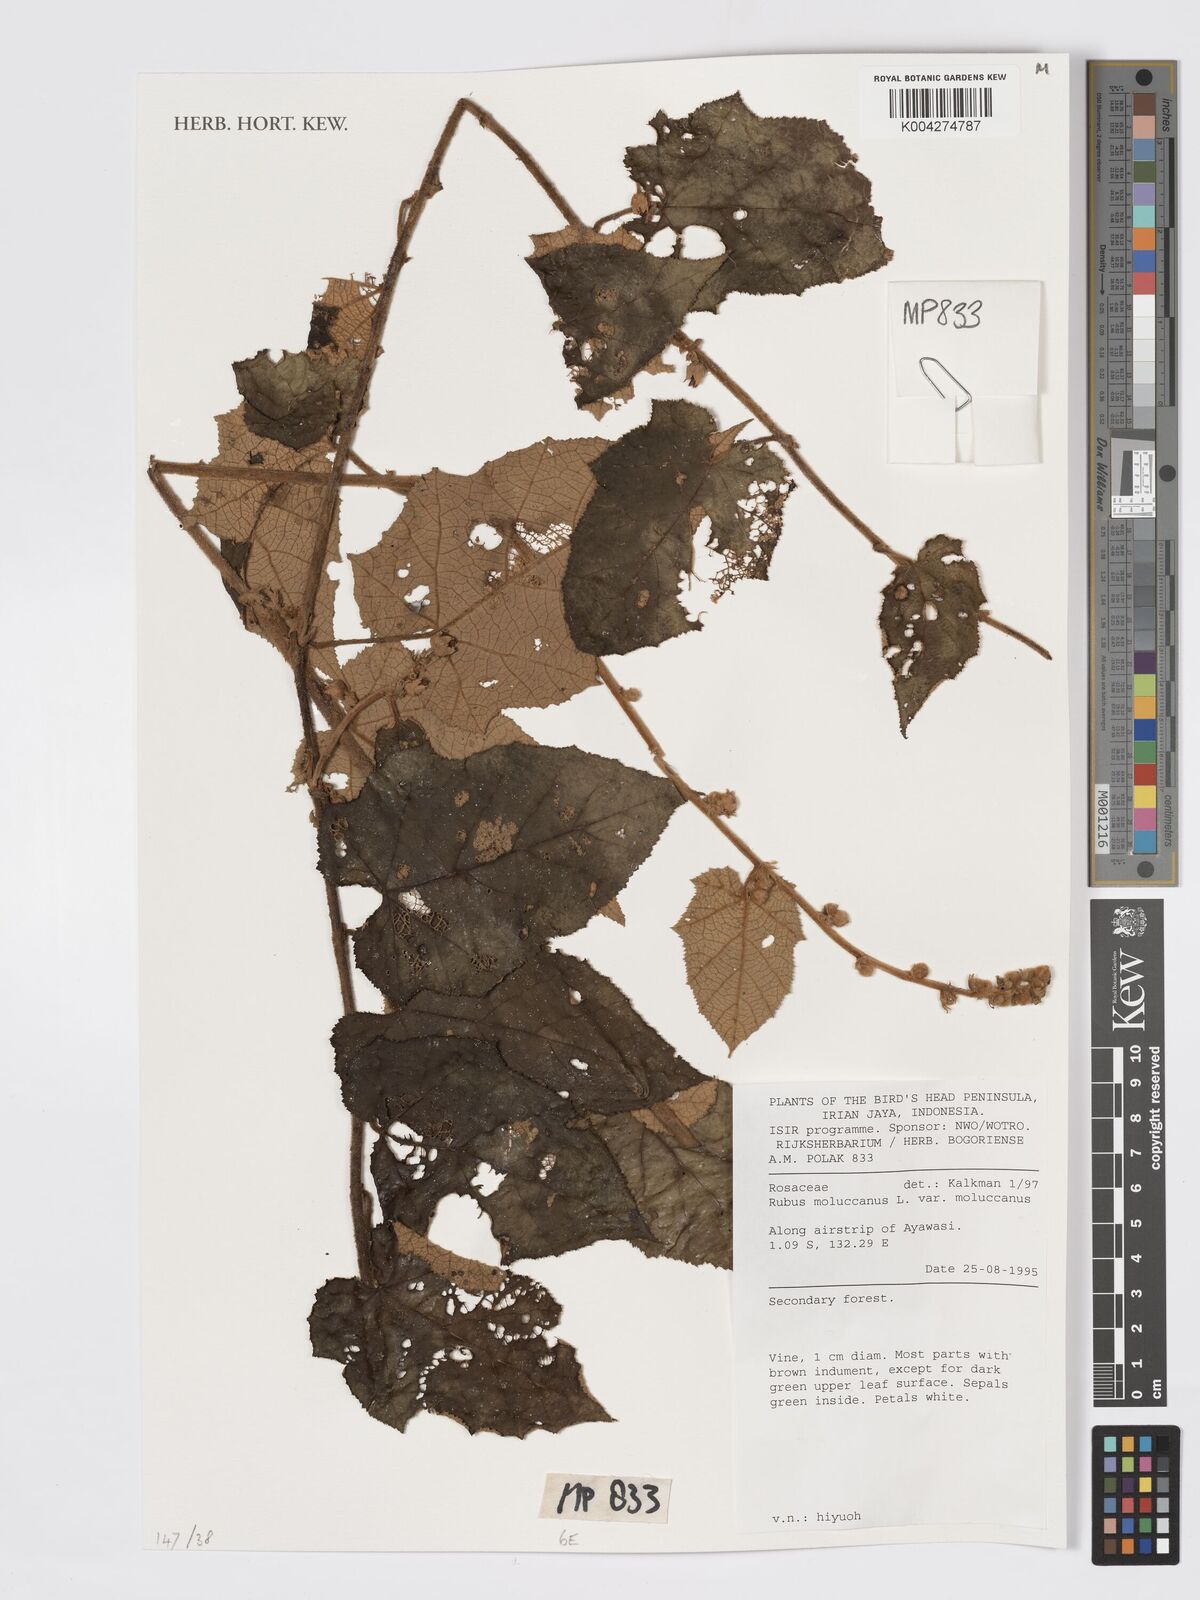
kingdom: Plantae
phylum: Tracheophyta
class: Magnoliopsida
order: Rosales
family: Rosaceae
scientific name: Rosaceae
